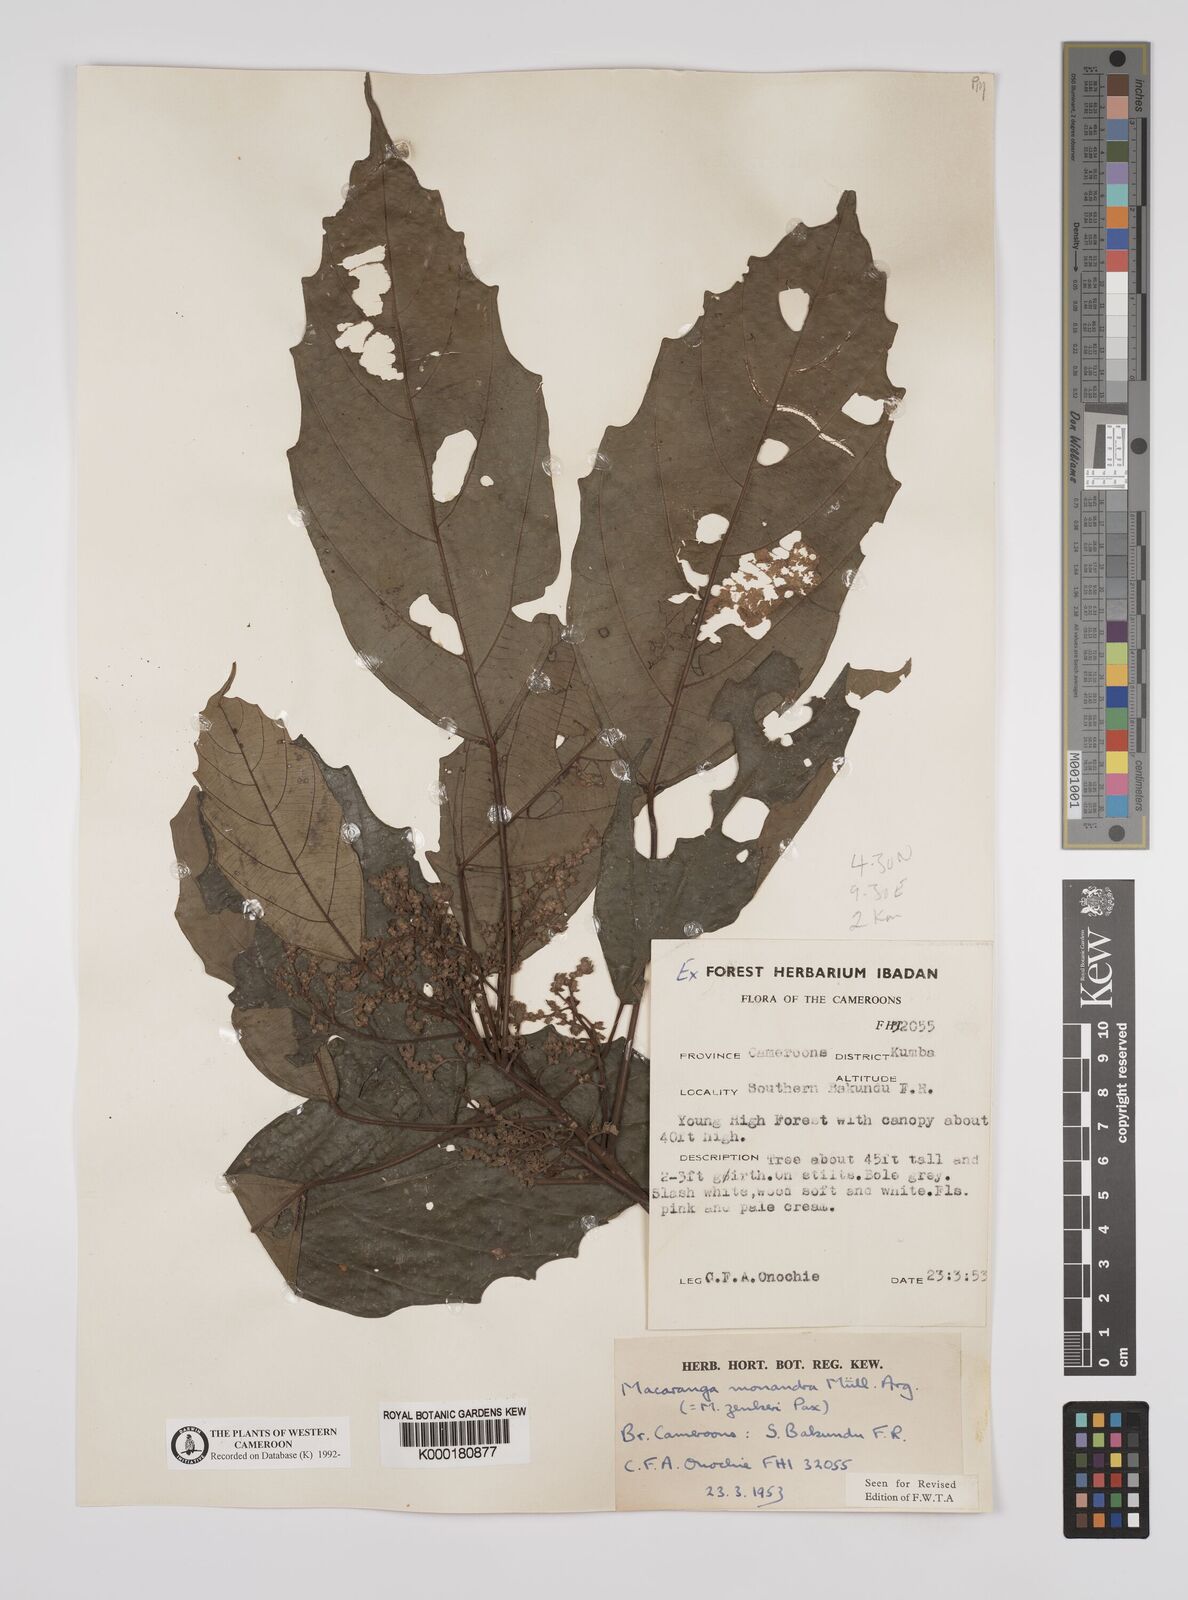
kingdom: Plantae
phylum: Tracheophyta
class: Magnoliopsida
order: Malpighiales
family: Euphorbiaceae
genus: Macaranga
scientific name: Macaranga
